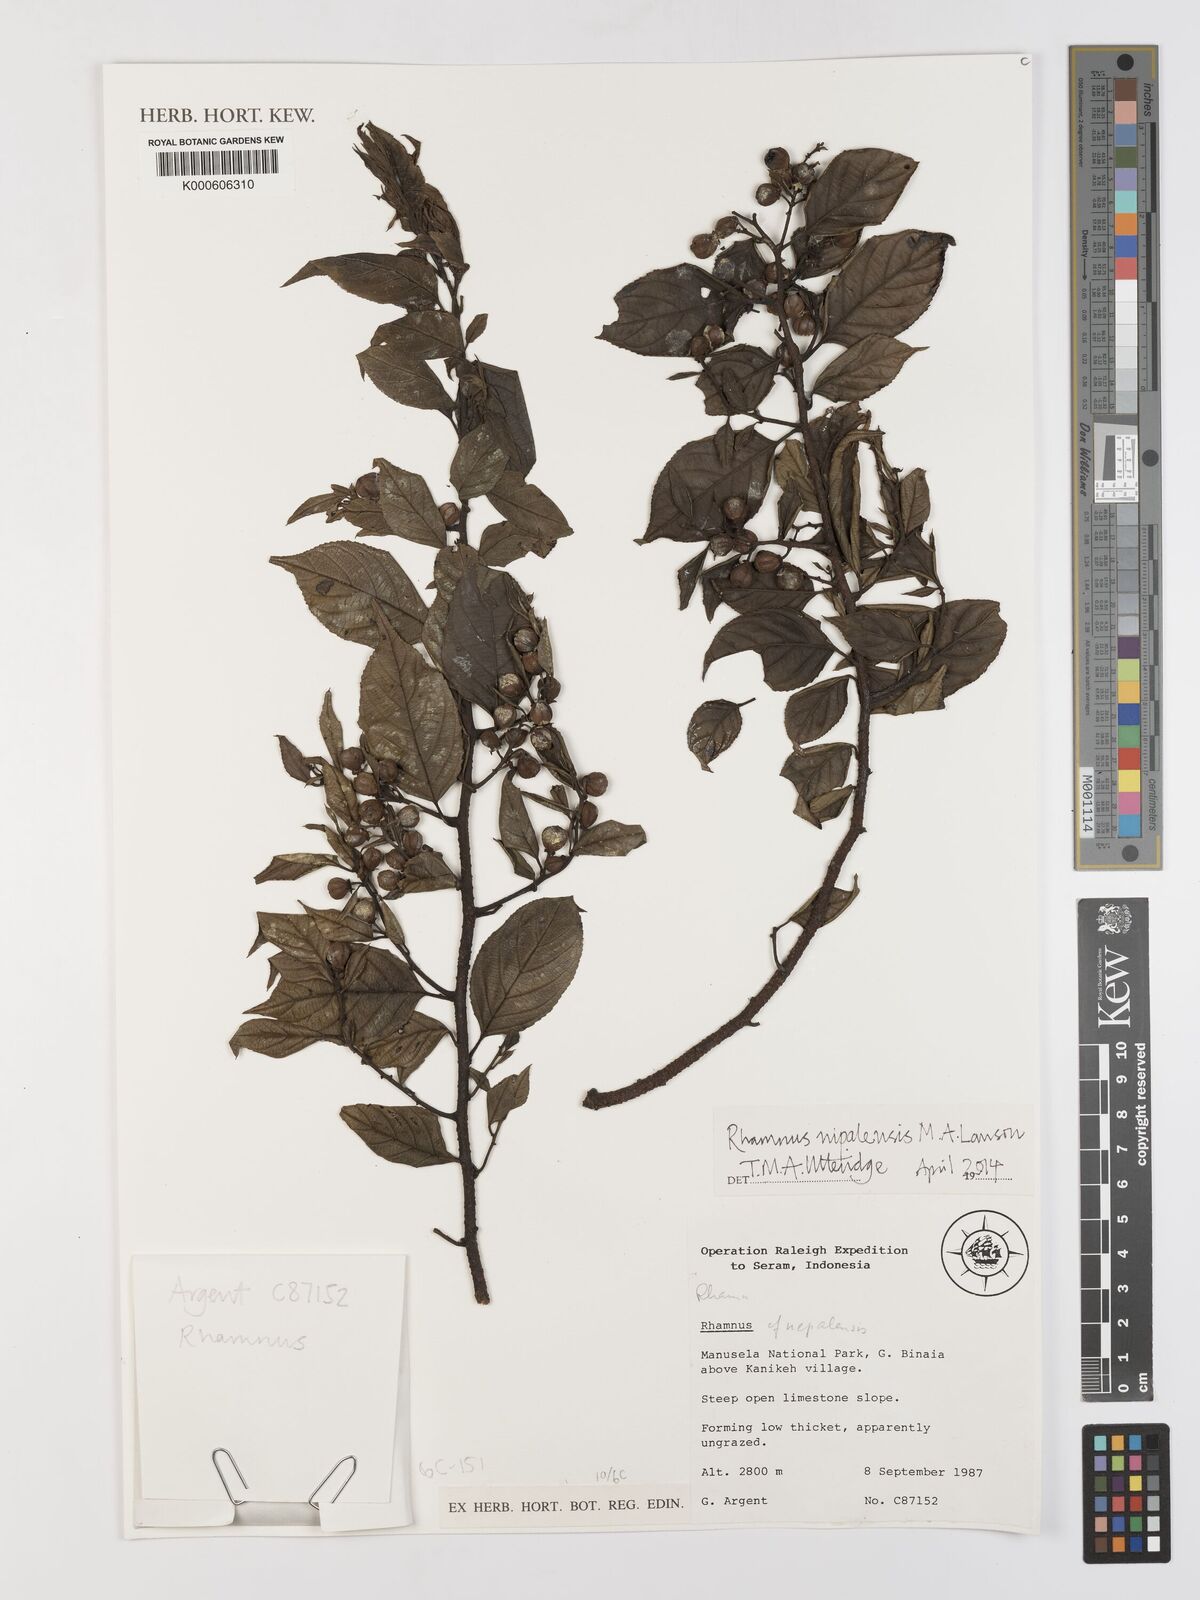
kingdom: Plantae
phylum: Tracheophyta
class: Magnoliopsida
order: Rosales
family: Rhamnaceae
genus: Rhamnus
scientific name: Rhamnus
